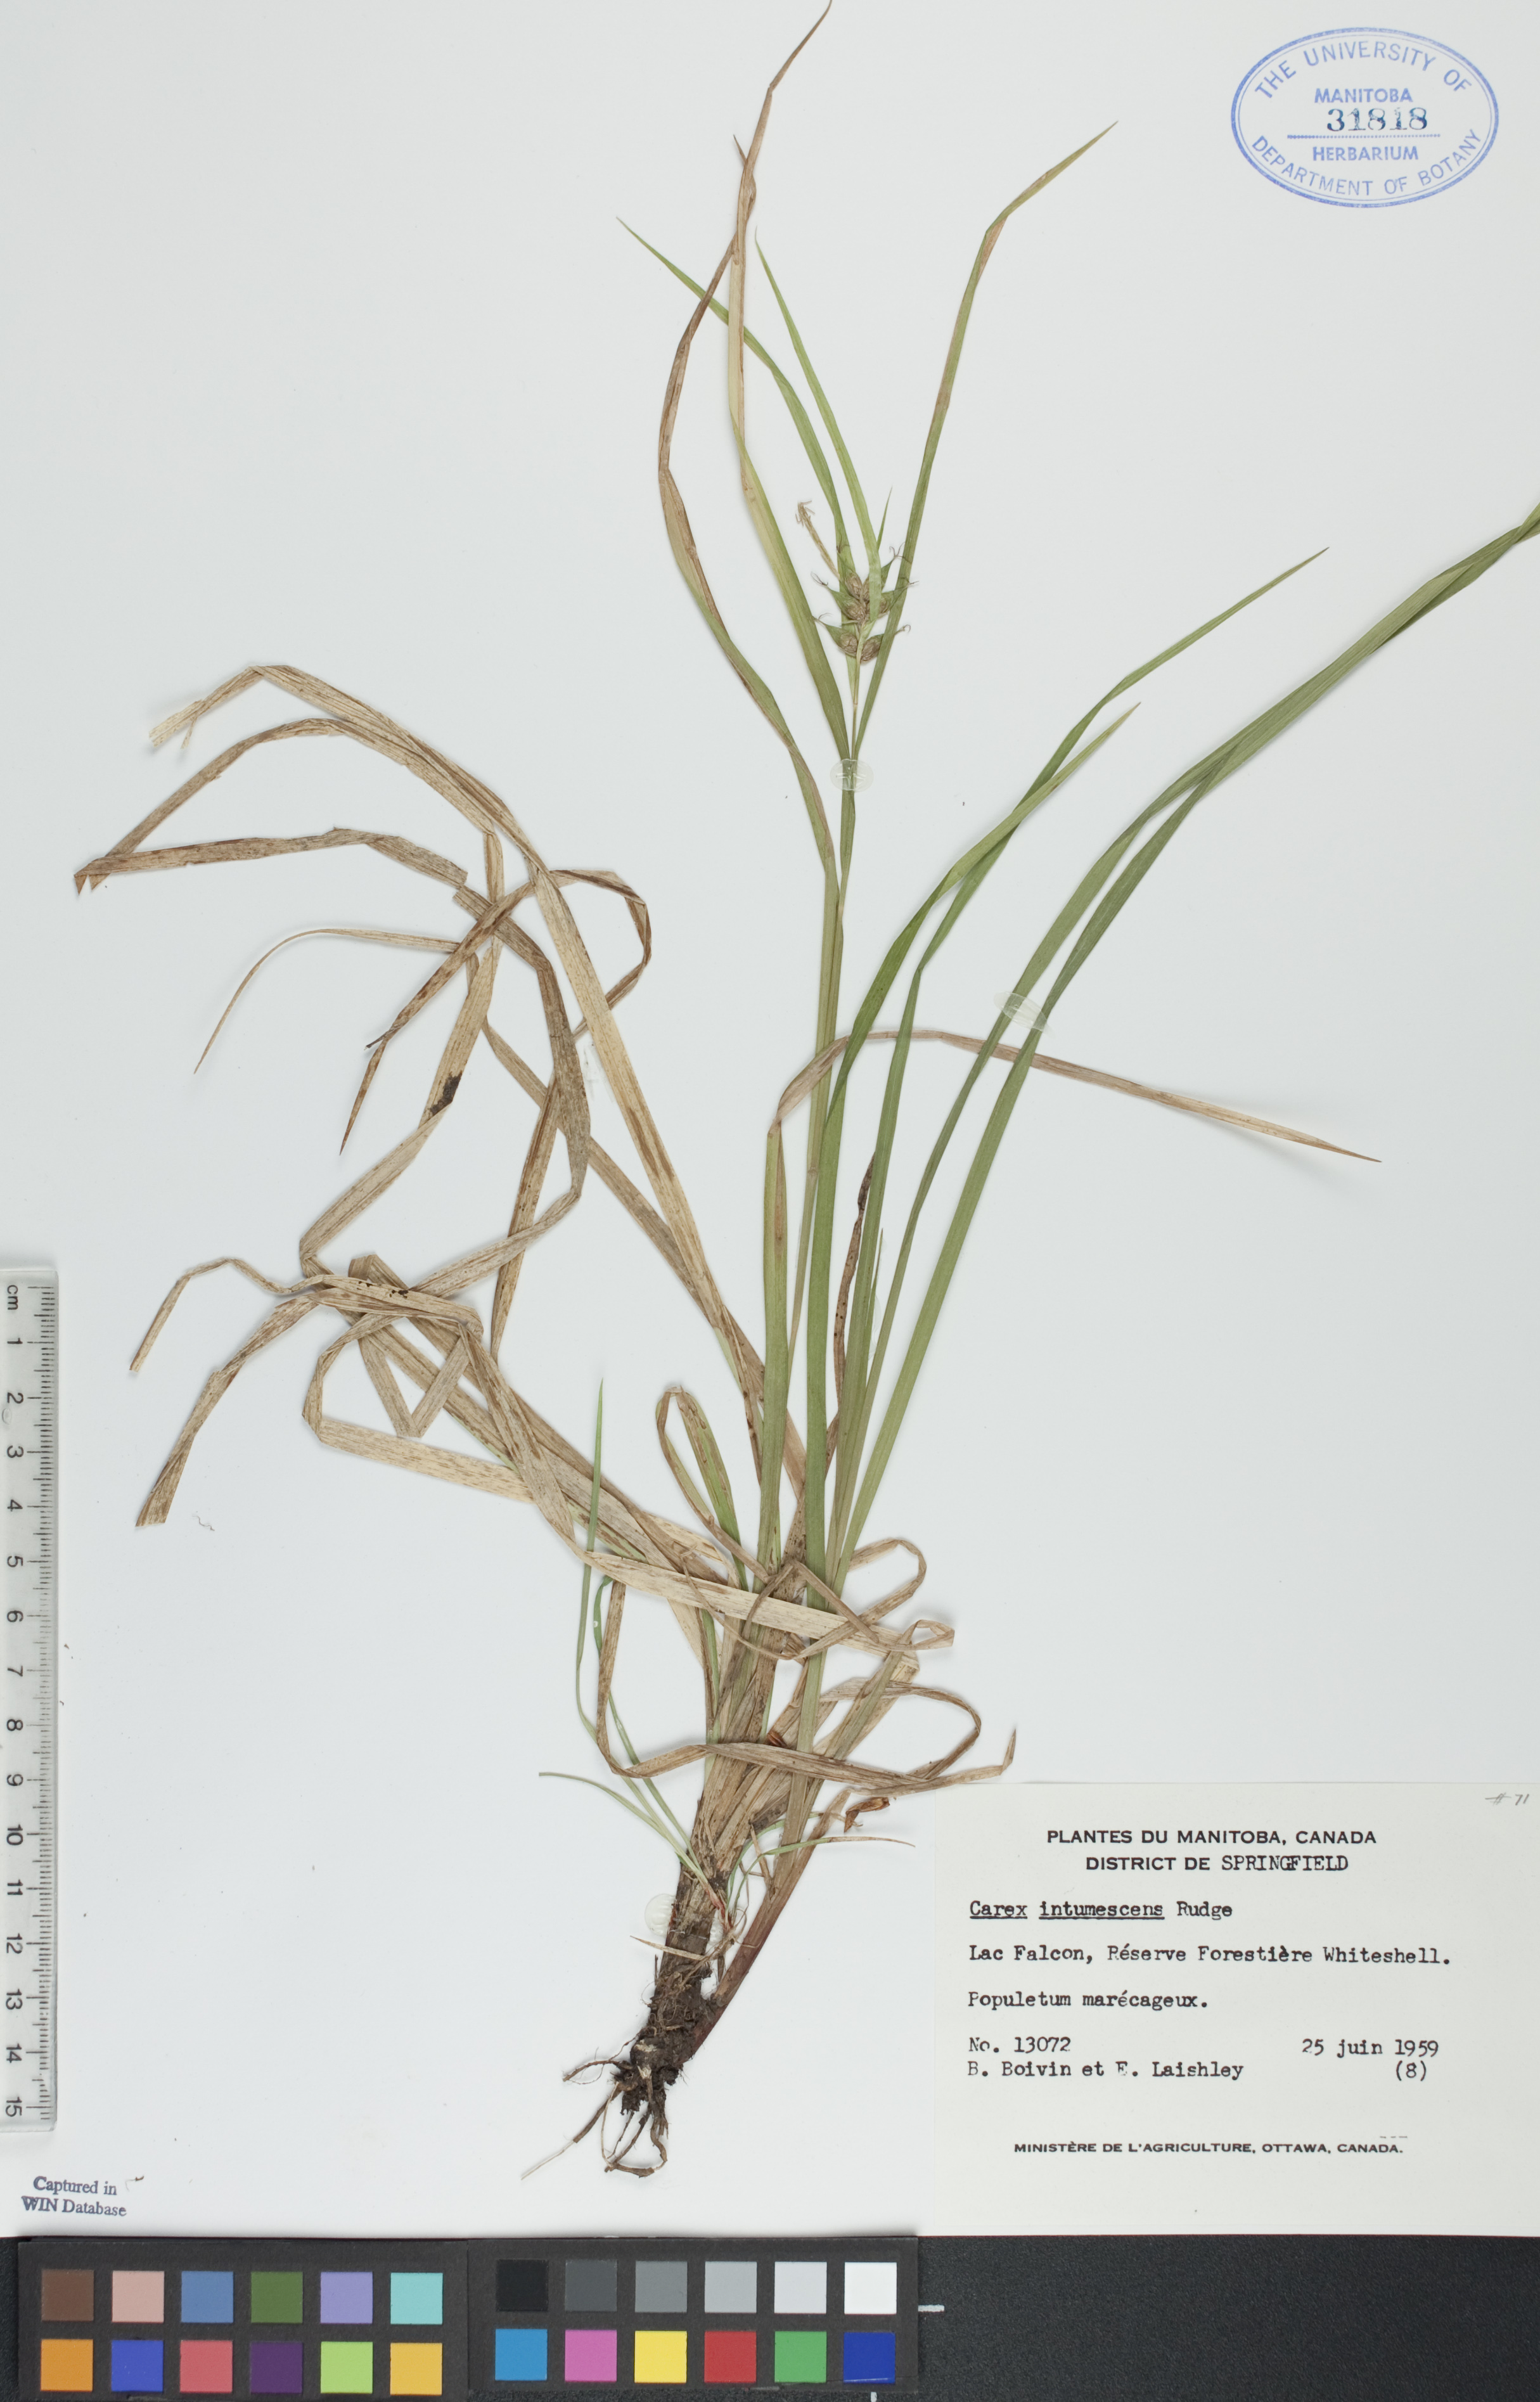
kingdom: Plantae
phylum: Tracheophyta
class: Liliopsida
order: Poales
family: Cyperaceae
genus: Carex
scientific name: Carex intumescens
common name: Greater bladder sedge
